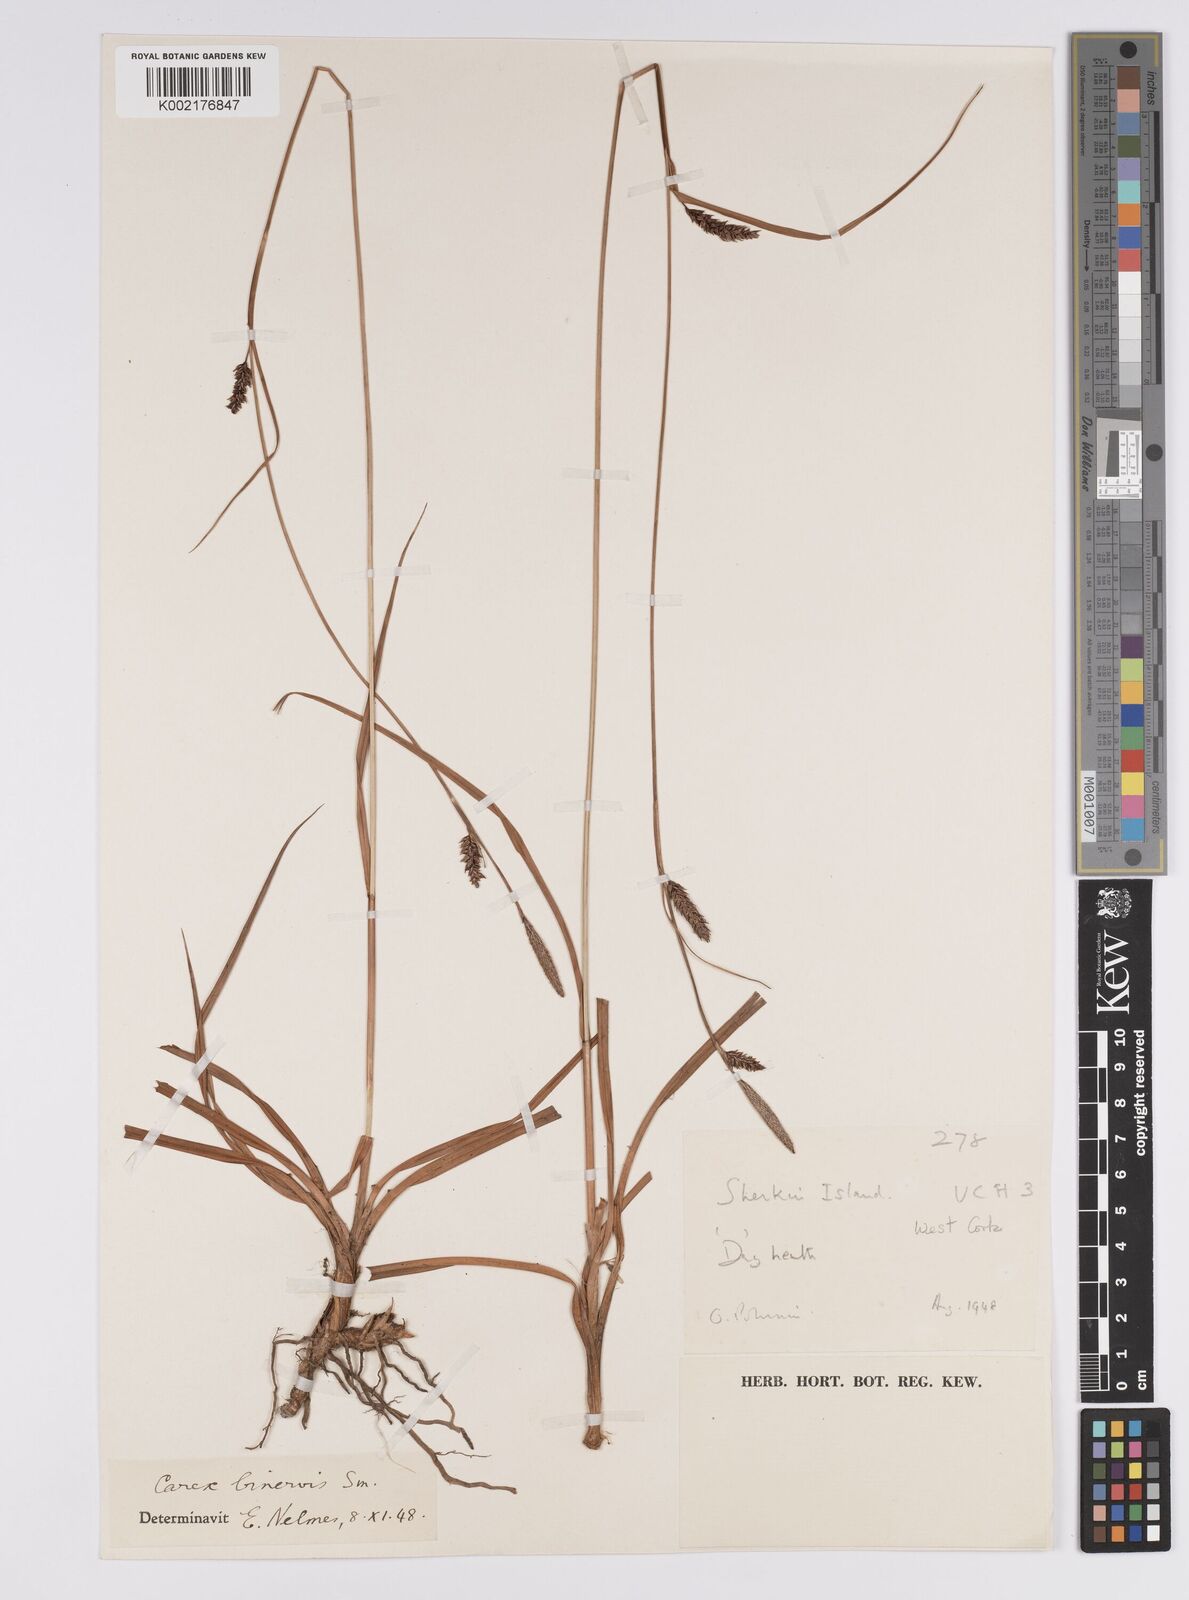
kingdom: Plantae
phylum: Tracheophyta
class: Liliopsida
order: Poales
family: Cyperaceae
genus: Carex
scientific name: Carex binervis
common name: Green-ribbed sedge
